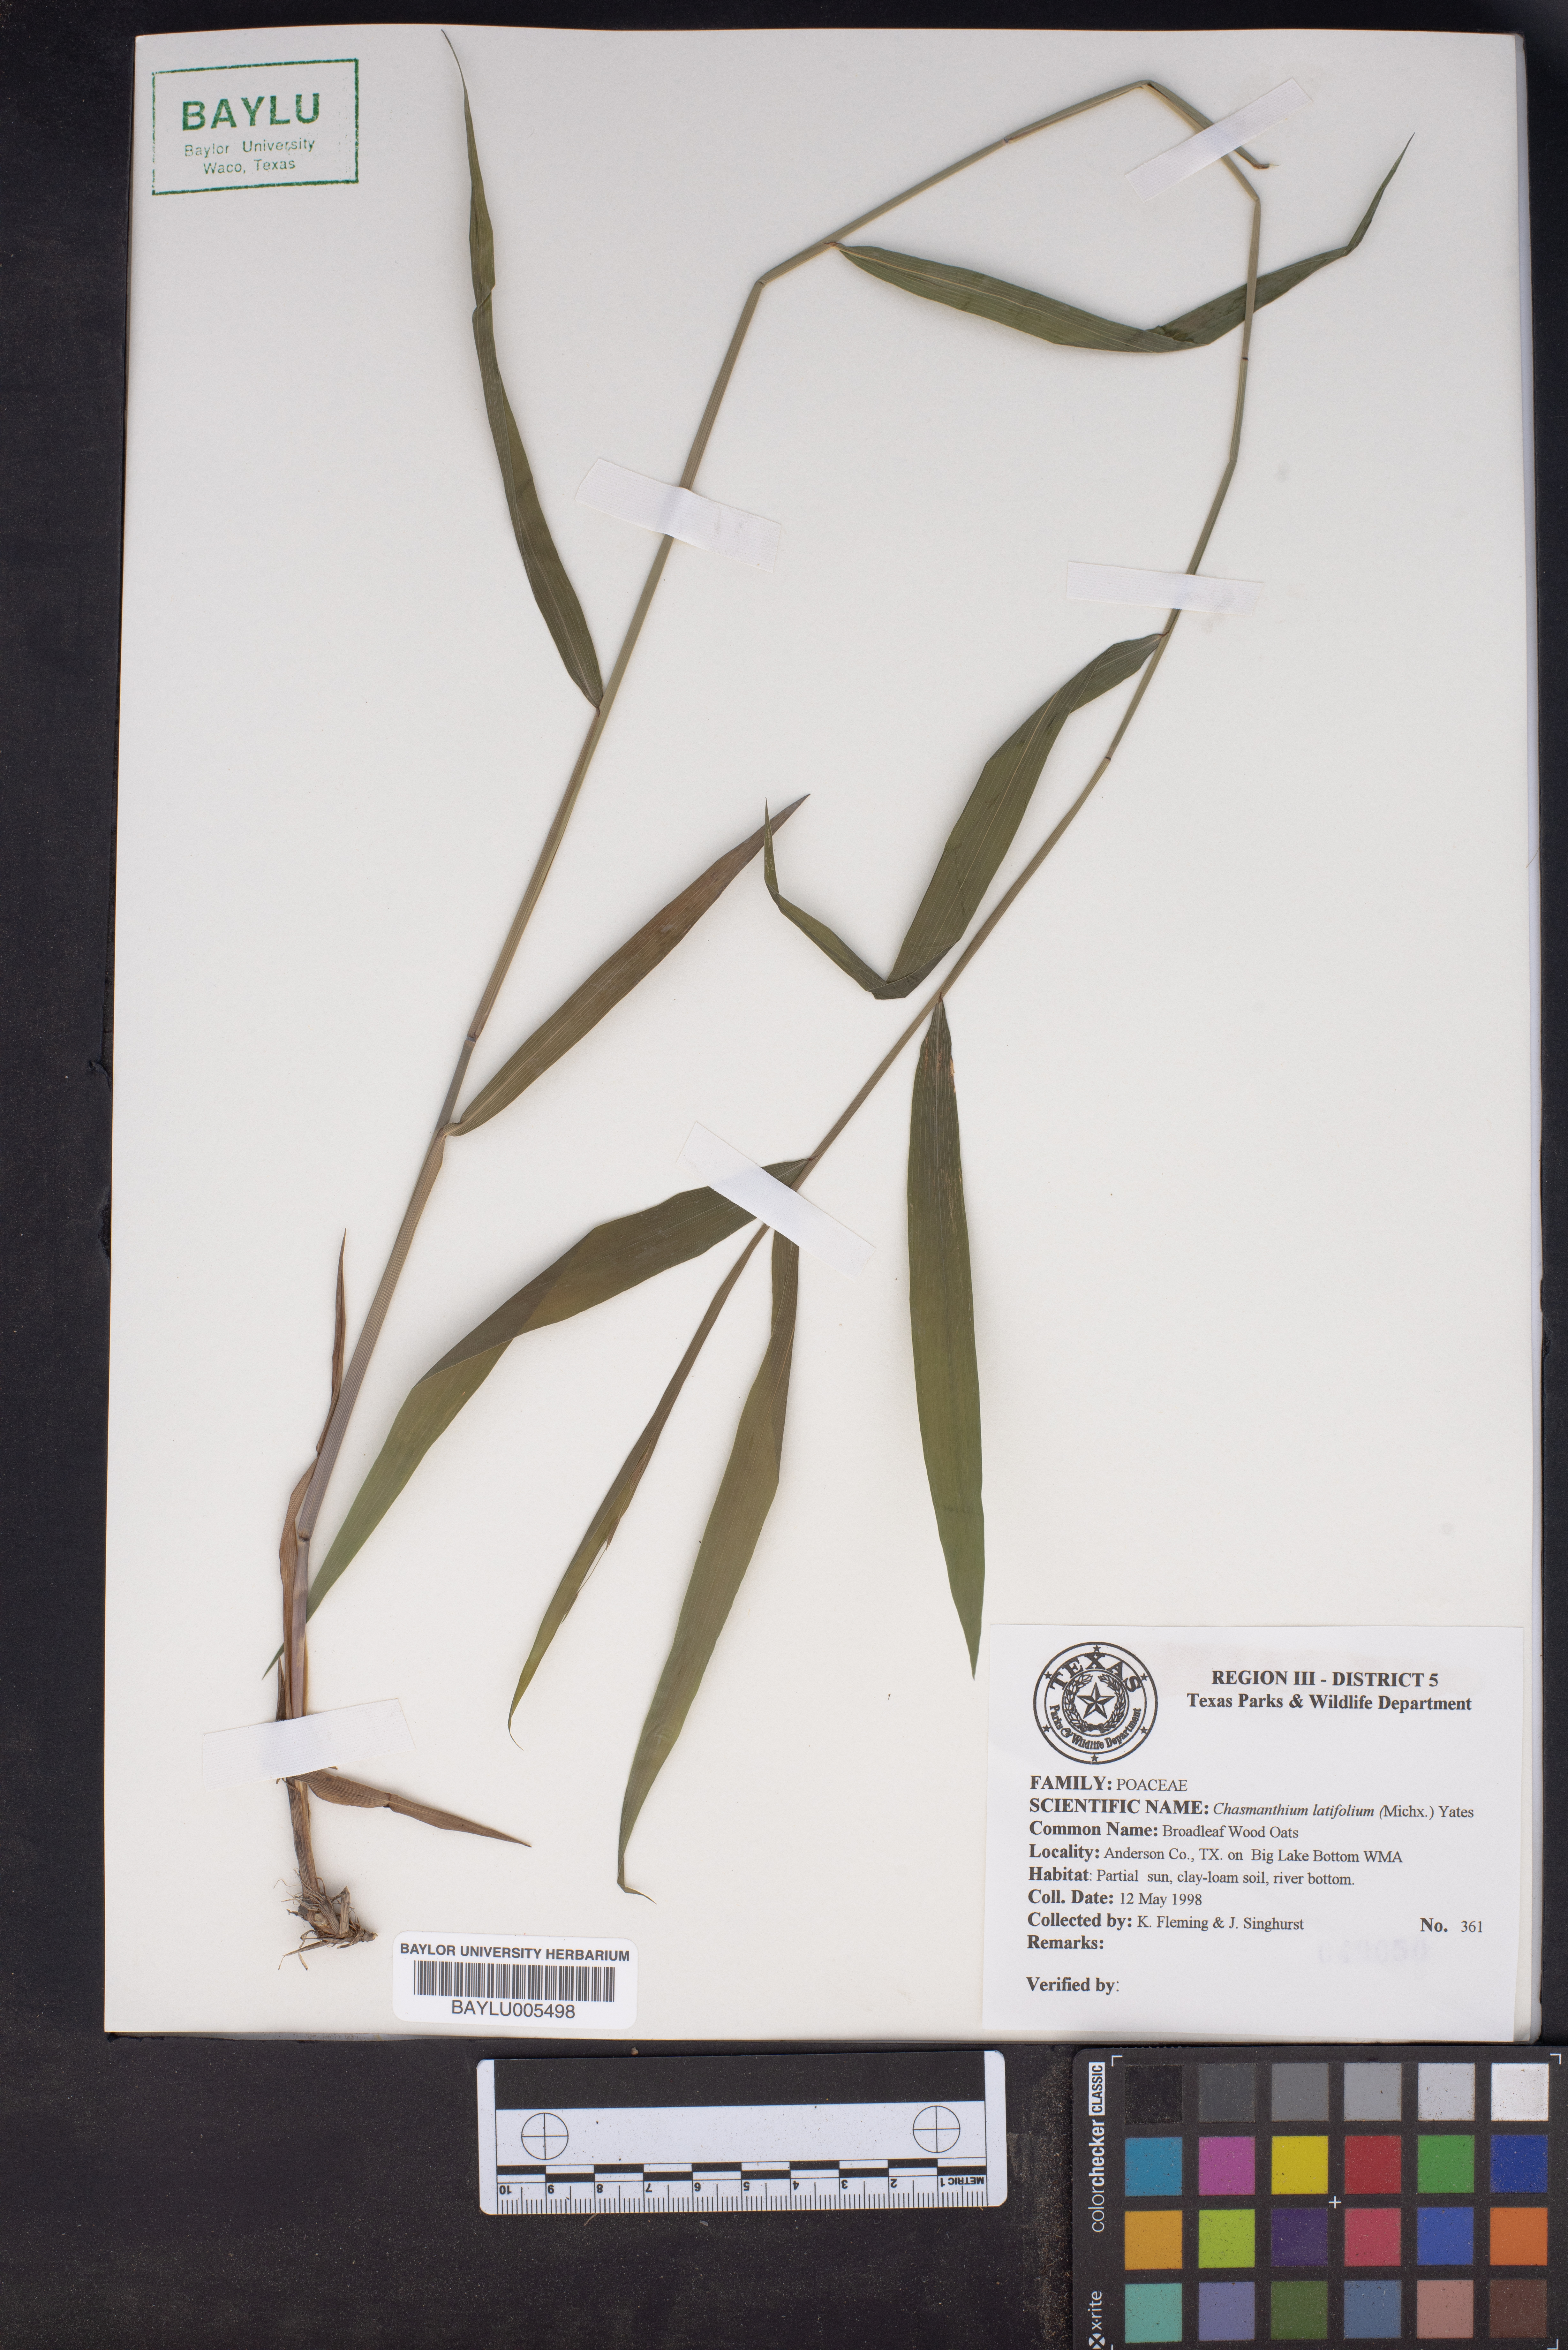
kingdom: Plantae
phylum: Tracheophyta
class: Liliopsida
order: Poales
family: Poaceae
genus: Chasmanthium
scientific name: Chasmanthium latifolium
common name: Broad-leaved chasmanthium
